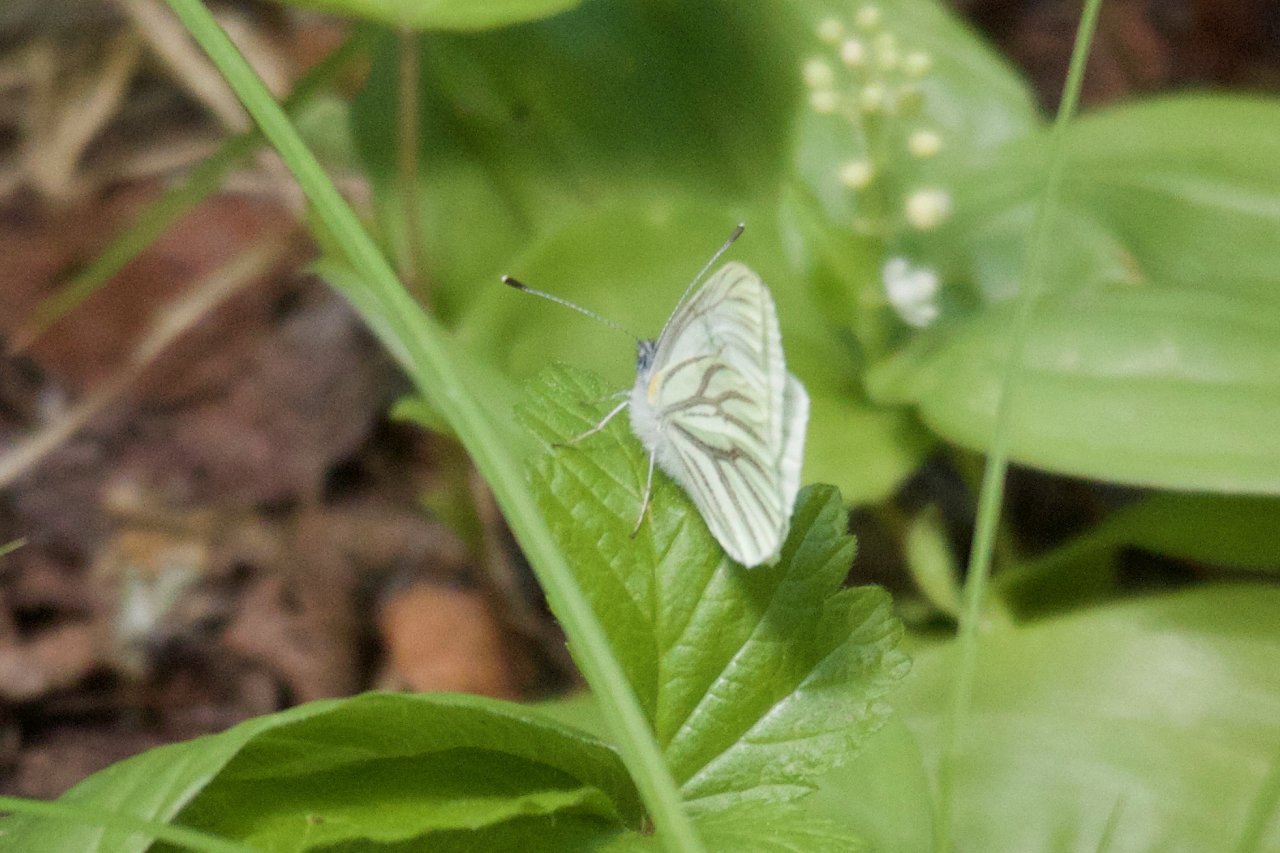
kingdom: Animalia
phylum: Arthropoda
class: Insecta
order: Lepidoptera
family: Pieridae
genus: Pieris
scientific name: Pieris oleracea
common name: Mustard White
